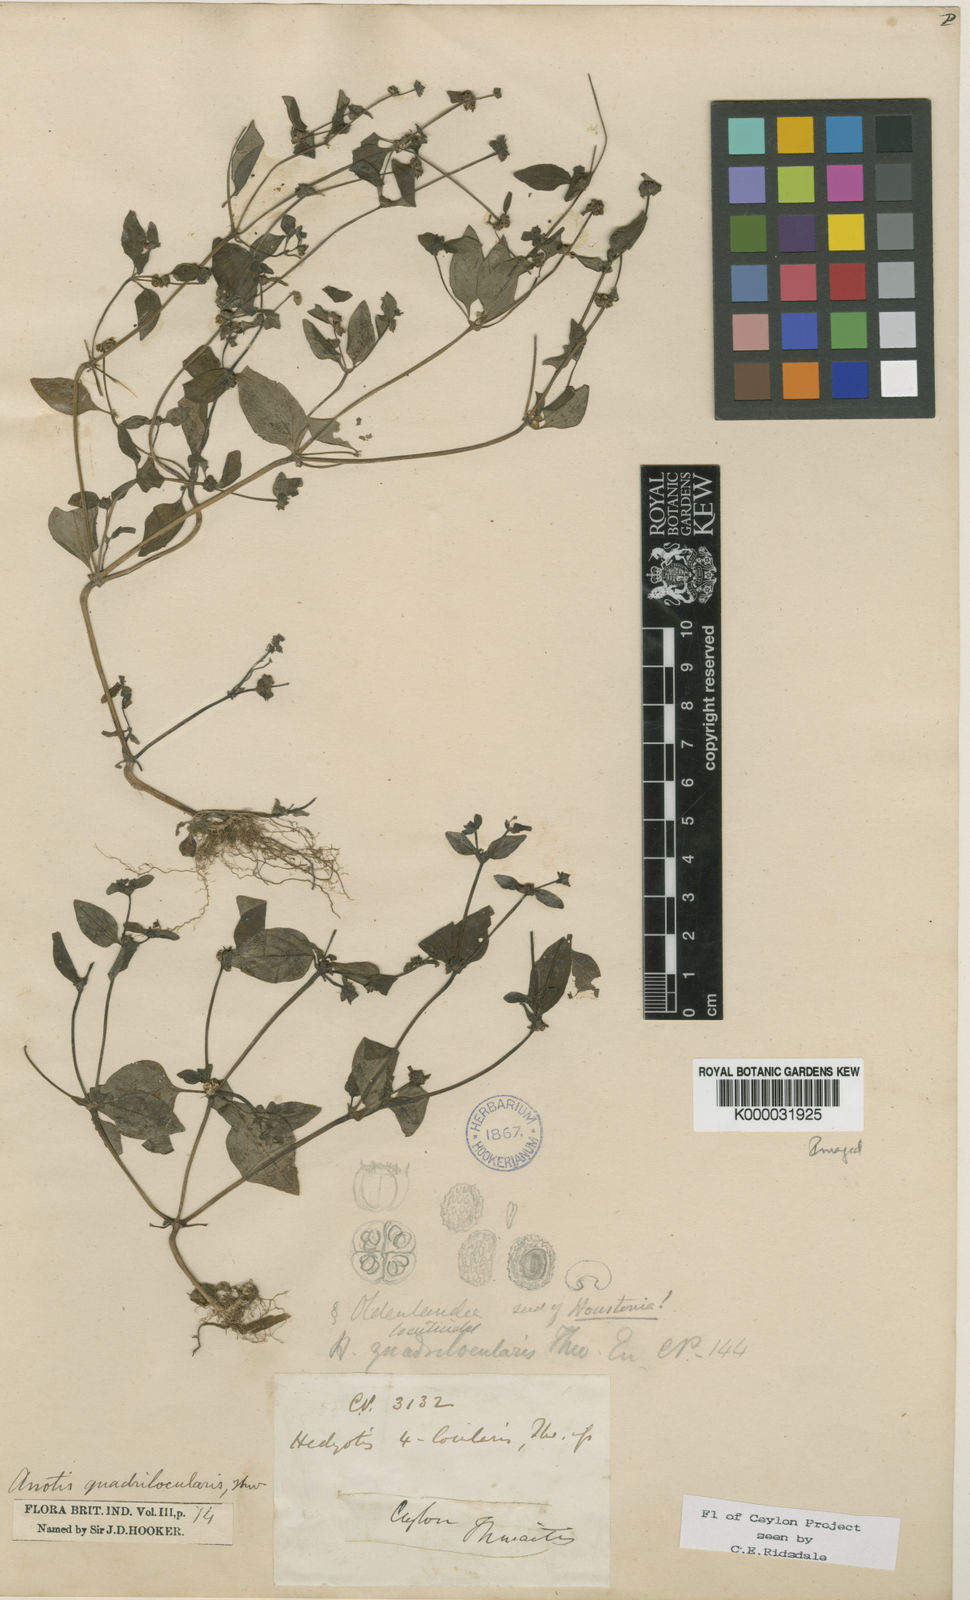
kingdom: Plantae
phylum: Tracheophyta
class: Magnoliopsida
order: Gentianales
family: Rubiaceae
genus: Neanotis
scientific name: Neanotis tubulosa
